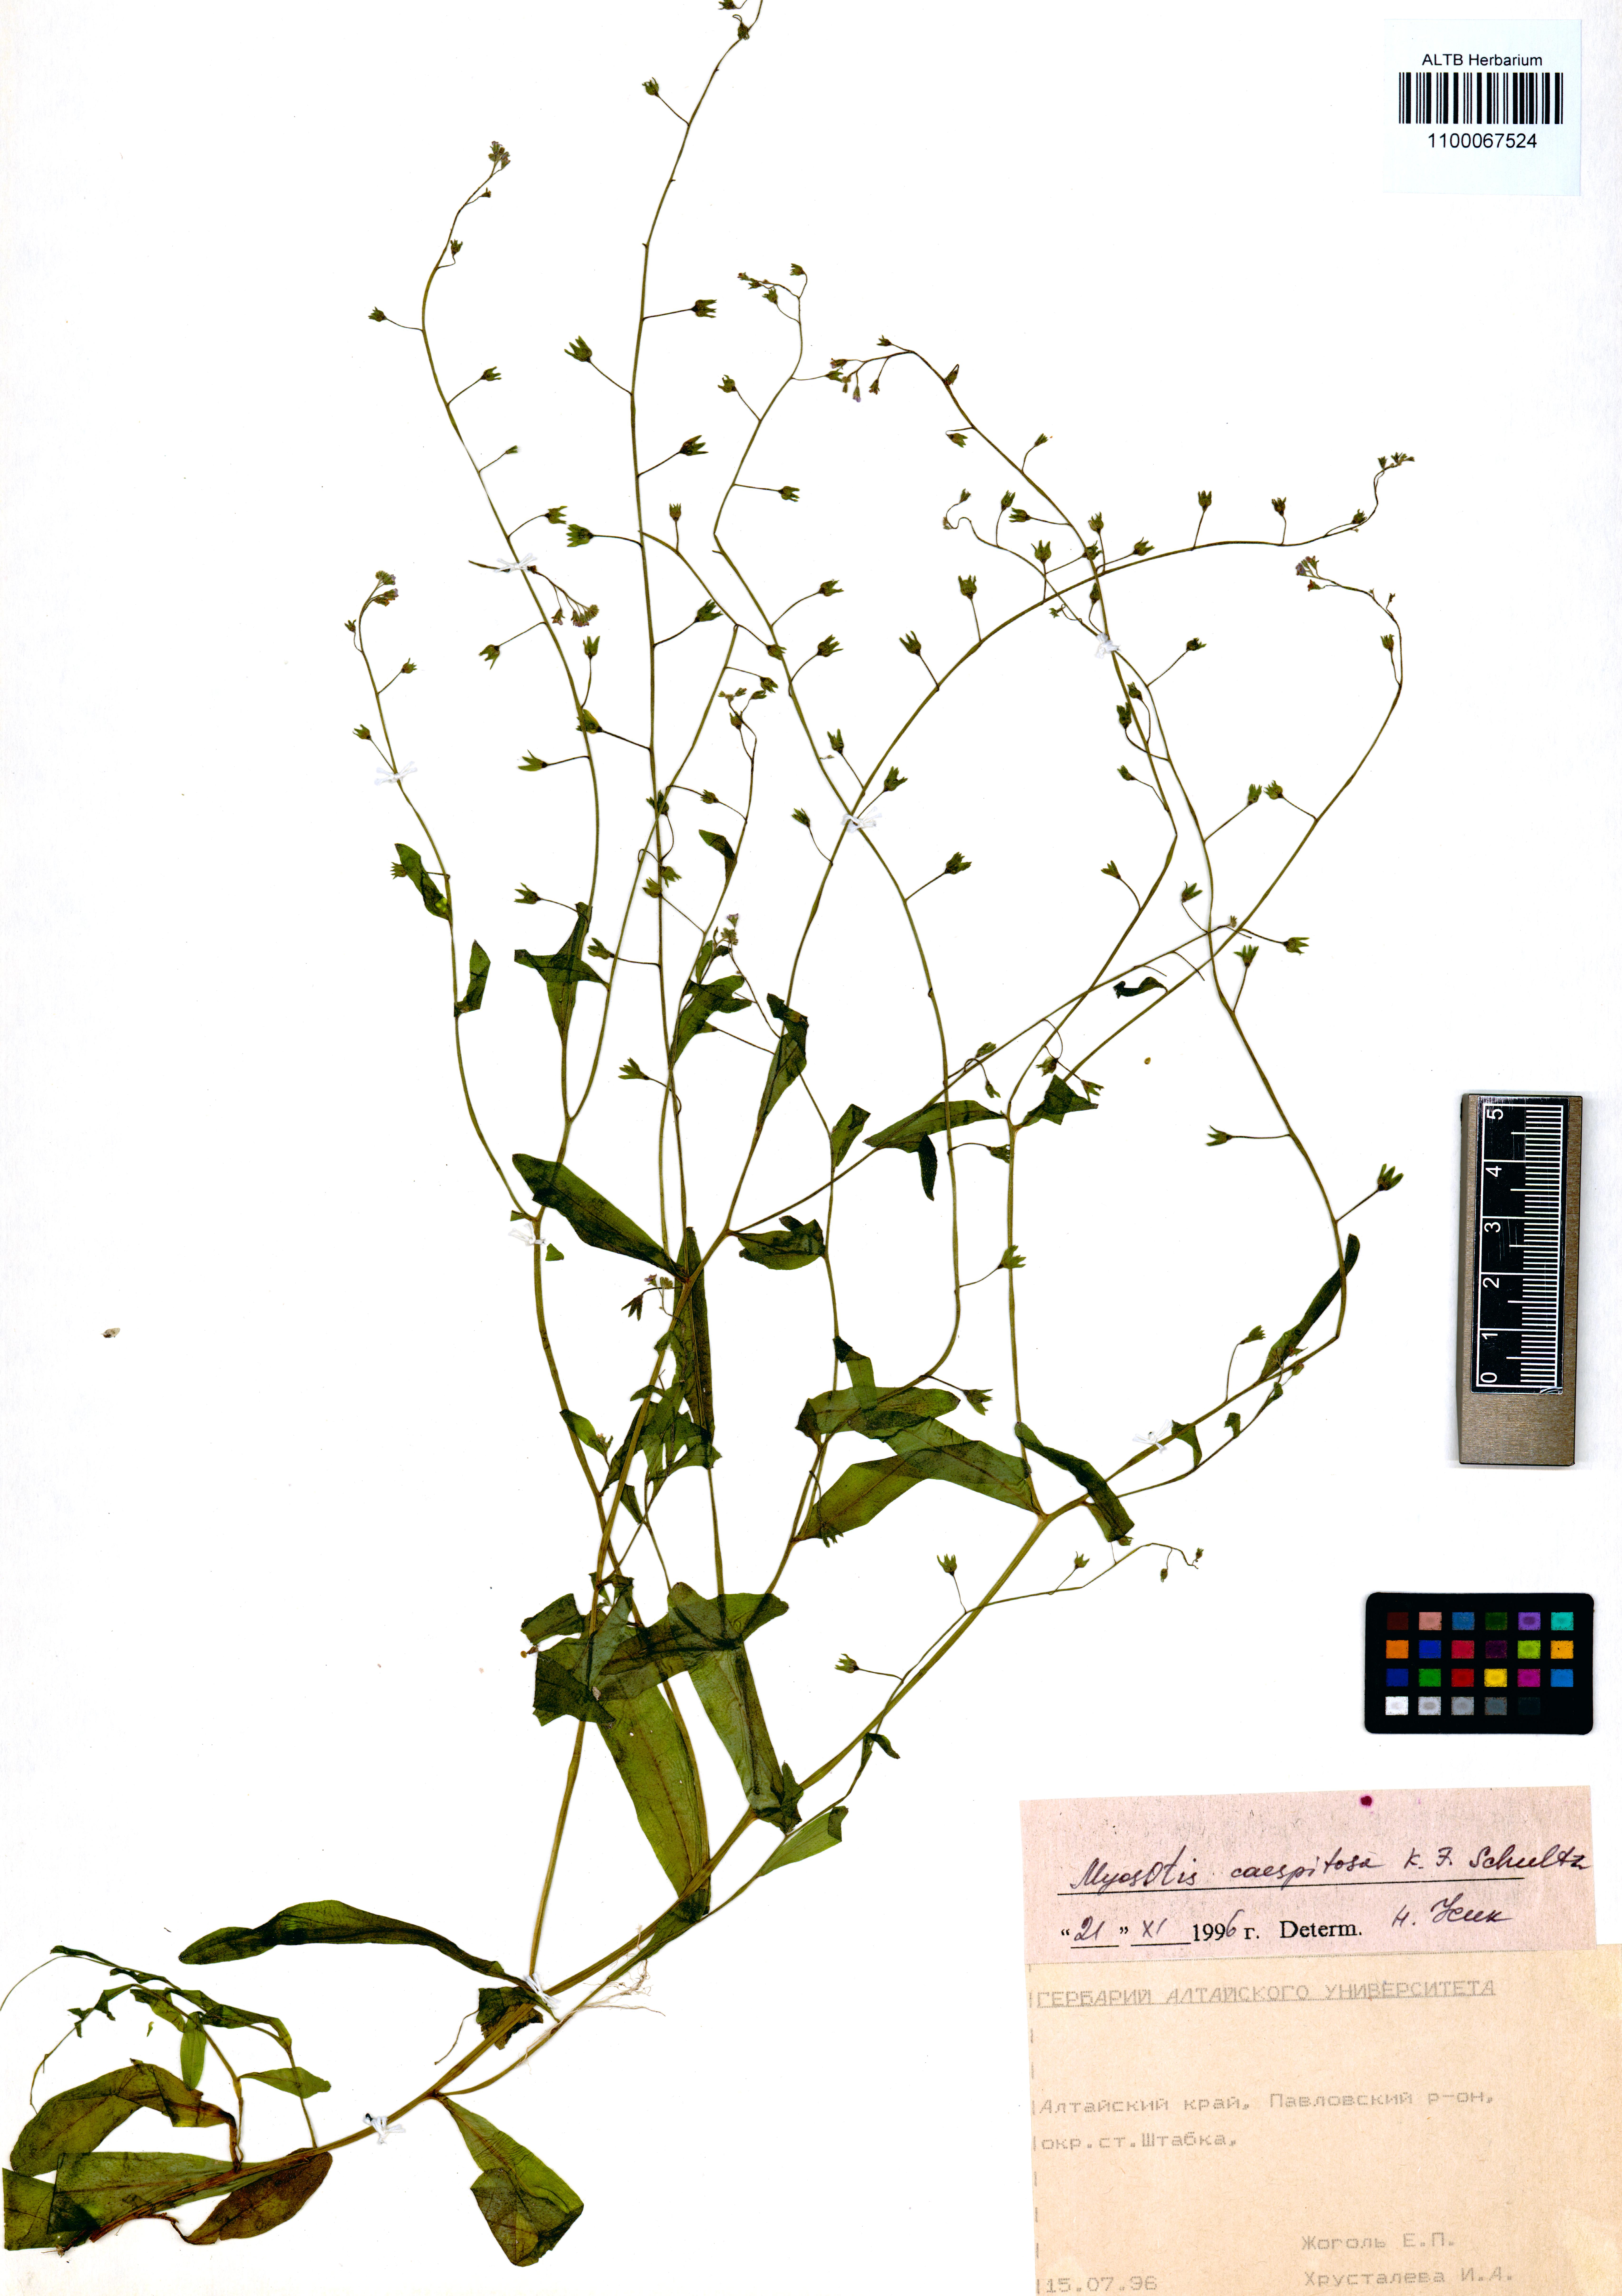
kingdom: Plantae
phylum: Tracheophyta
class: Magnoliopsida
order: Boraginales
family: Boraginaceae
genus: Myosotis
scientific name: Myosotis laxa
